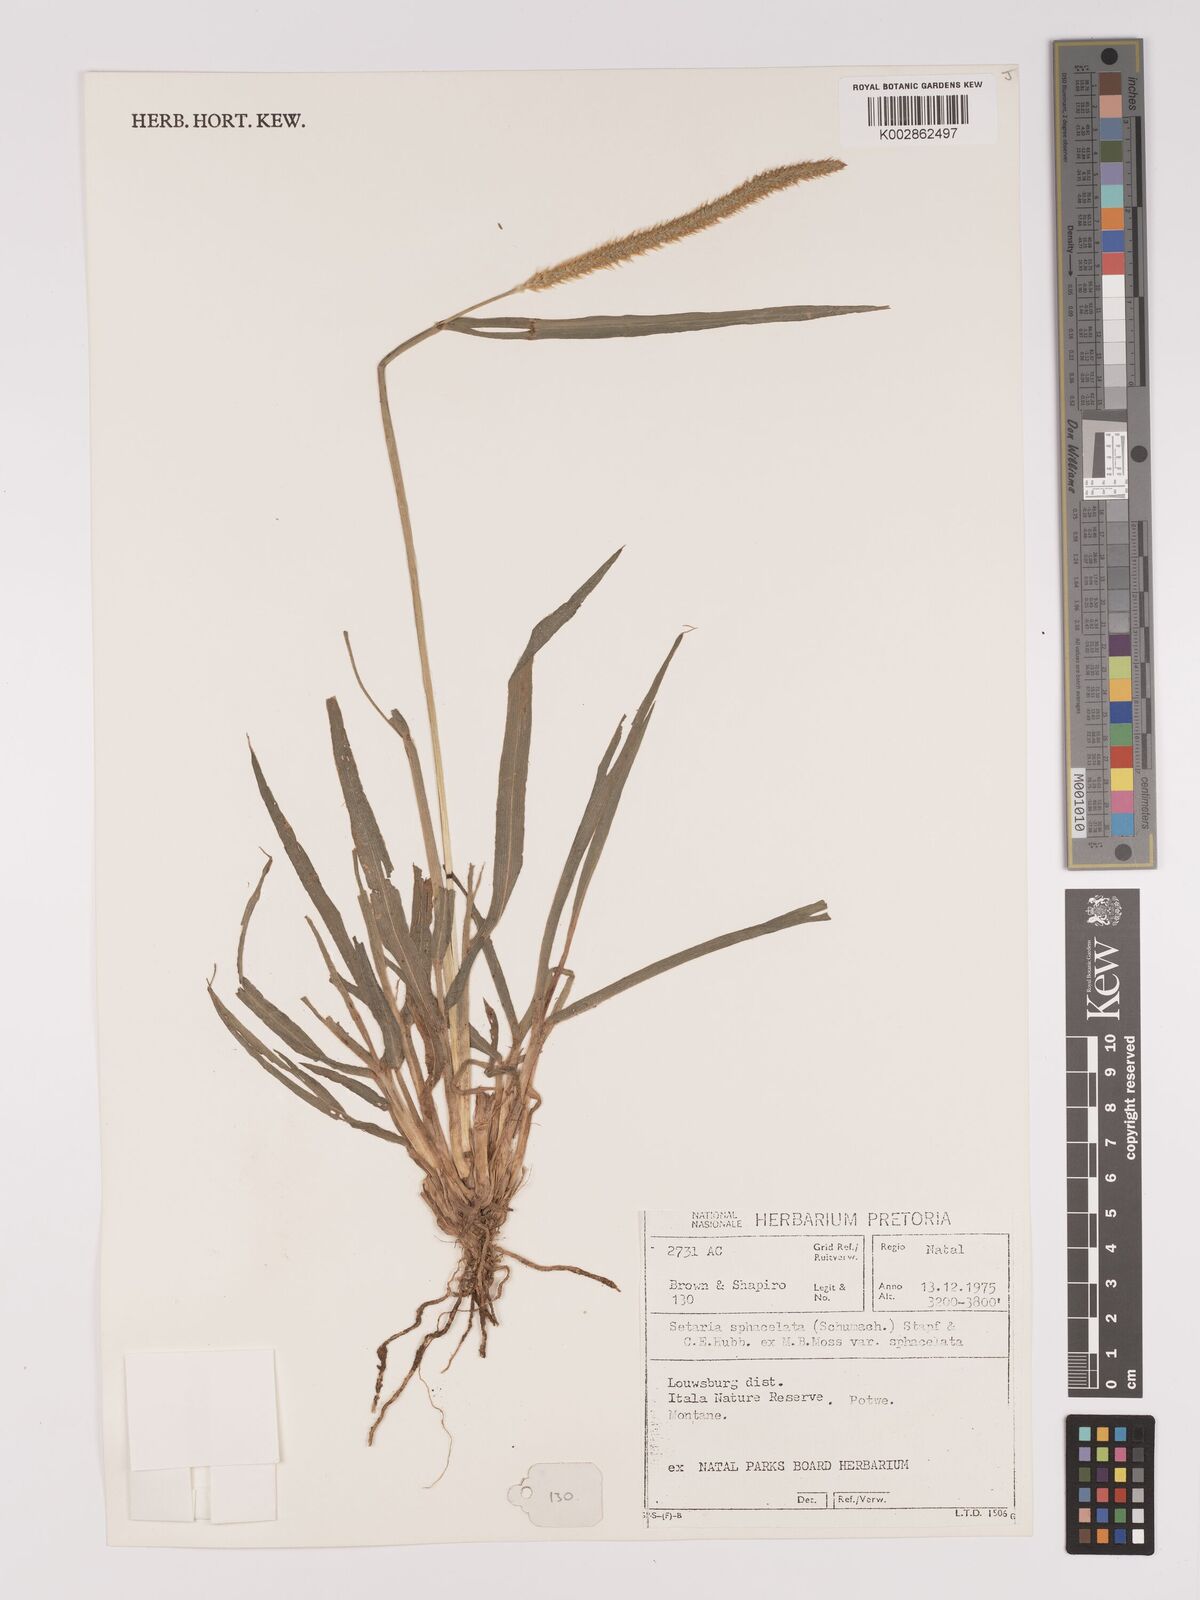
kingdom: Plantae
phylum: Tracheophyta
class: Liliopsida
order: Poales
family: Poaceae
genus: Setaria
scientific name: Setaria sphacelata
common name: African bristlegrass
